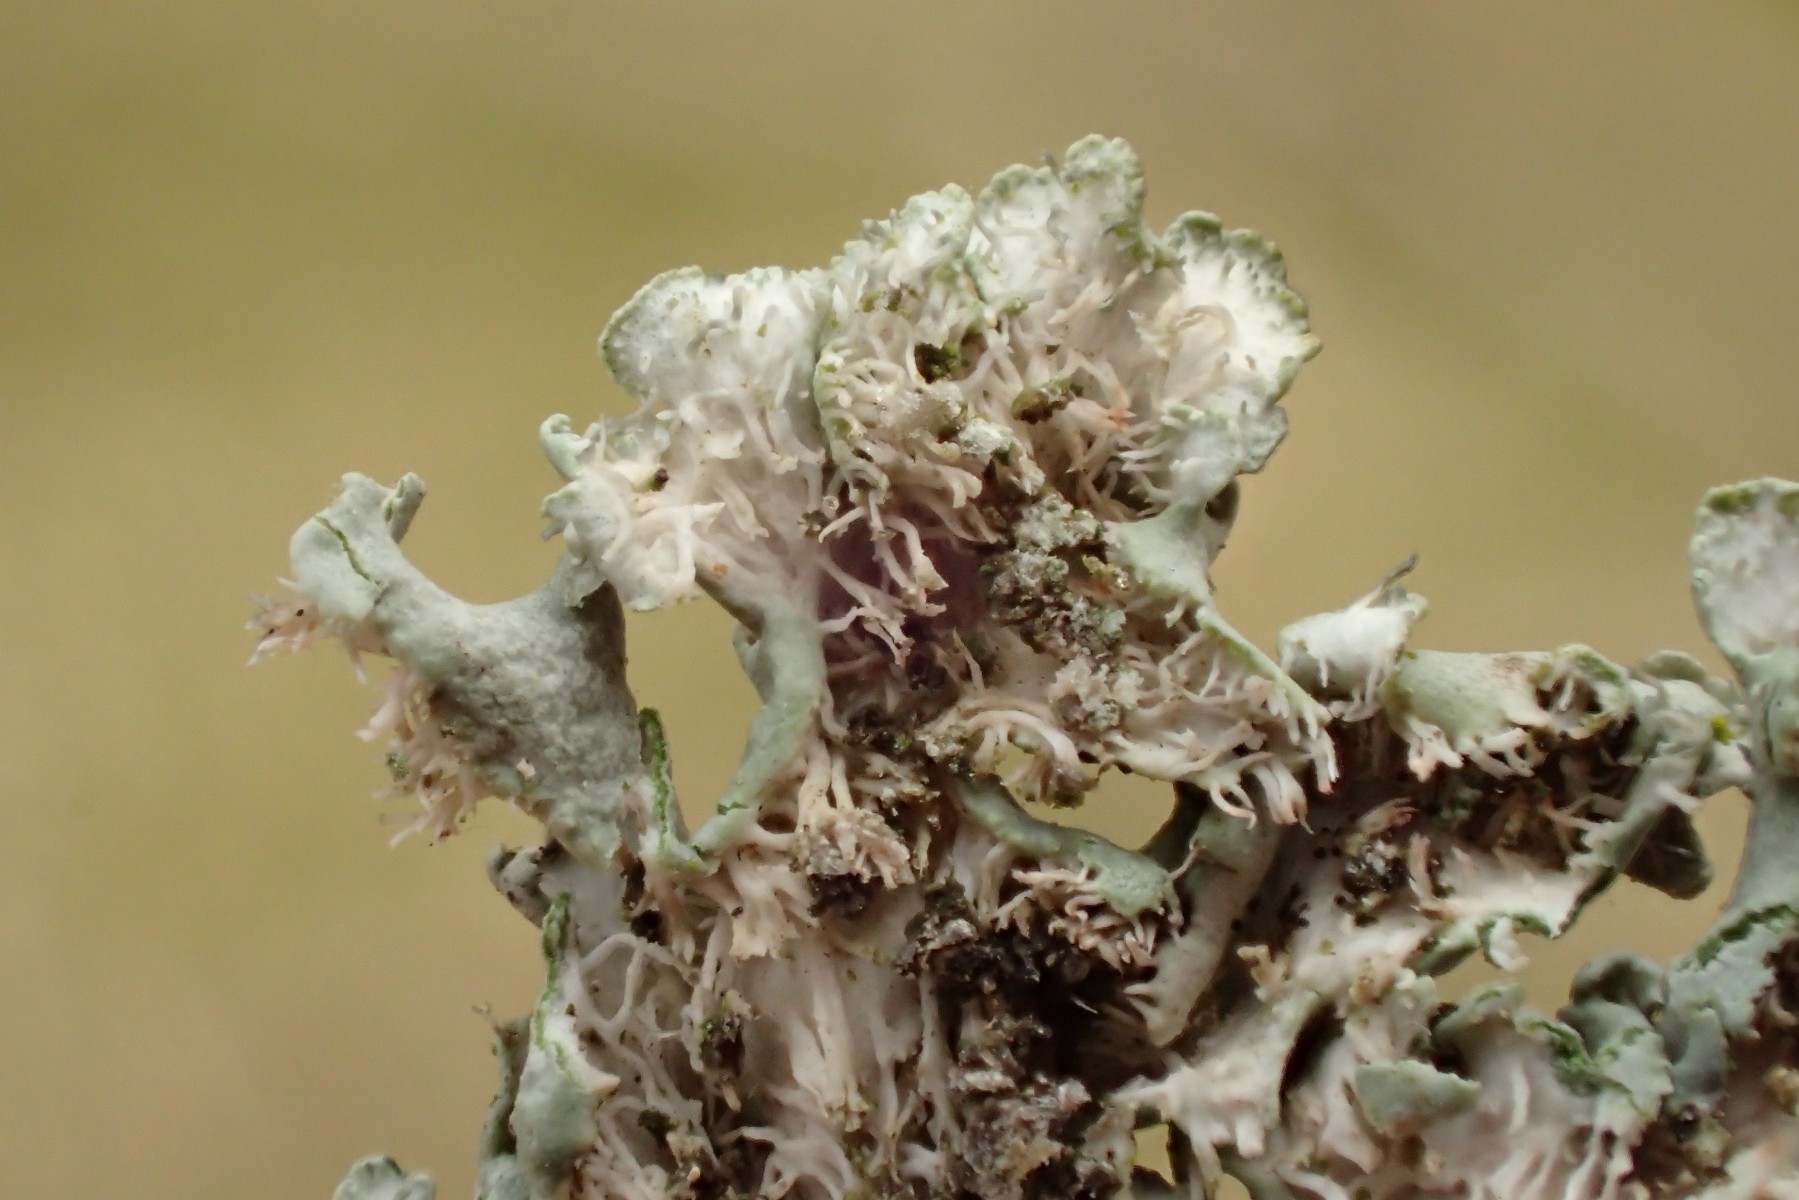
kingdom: Fungi
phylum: Ascomycota
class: Lecanoromycetes
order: Caliciales
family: Physciaceae
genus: Physcia
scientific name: Physcia aipolia
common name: hvidprikket rosetlav
